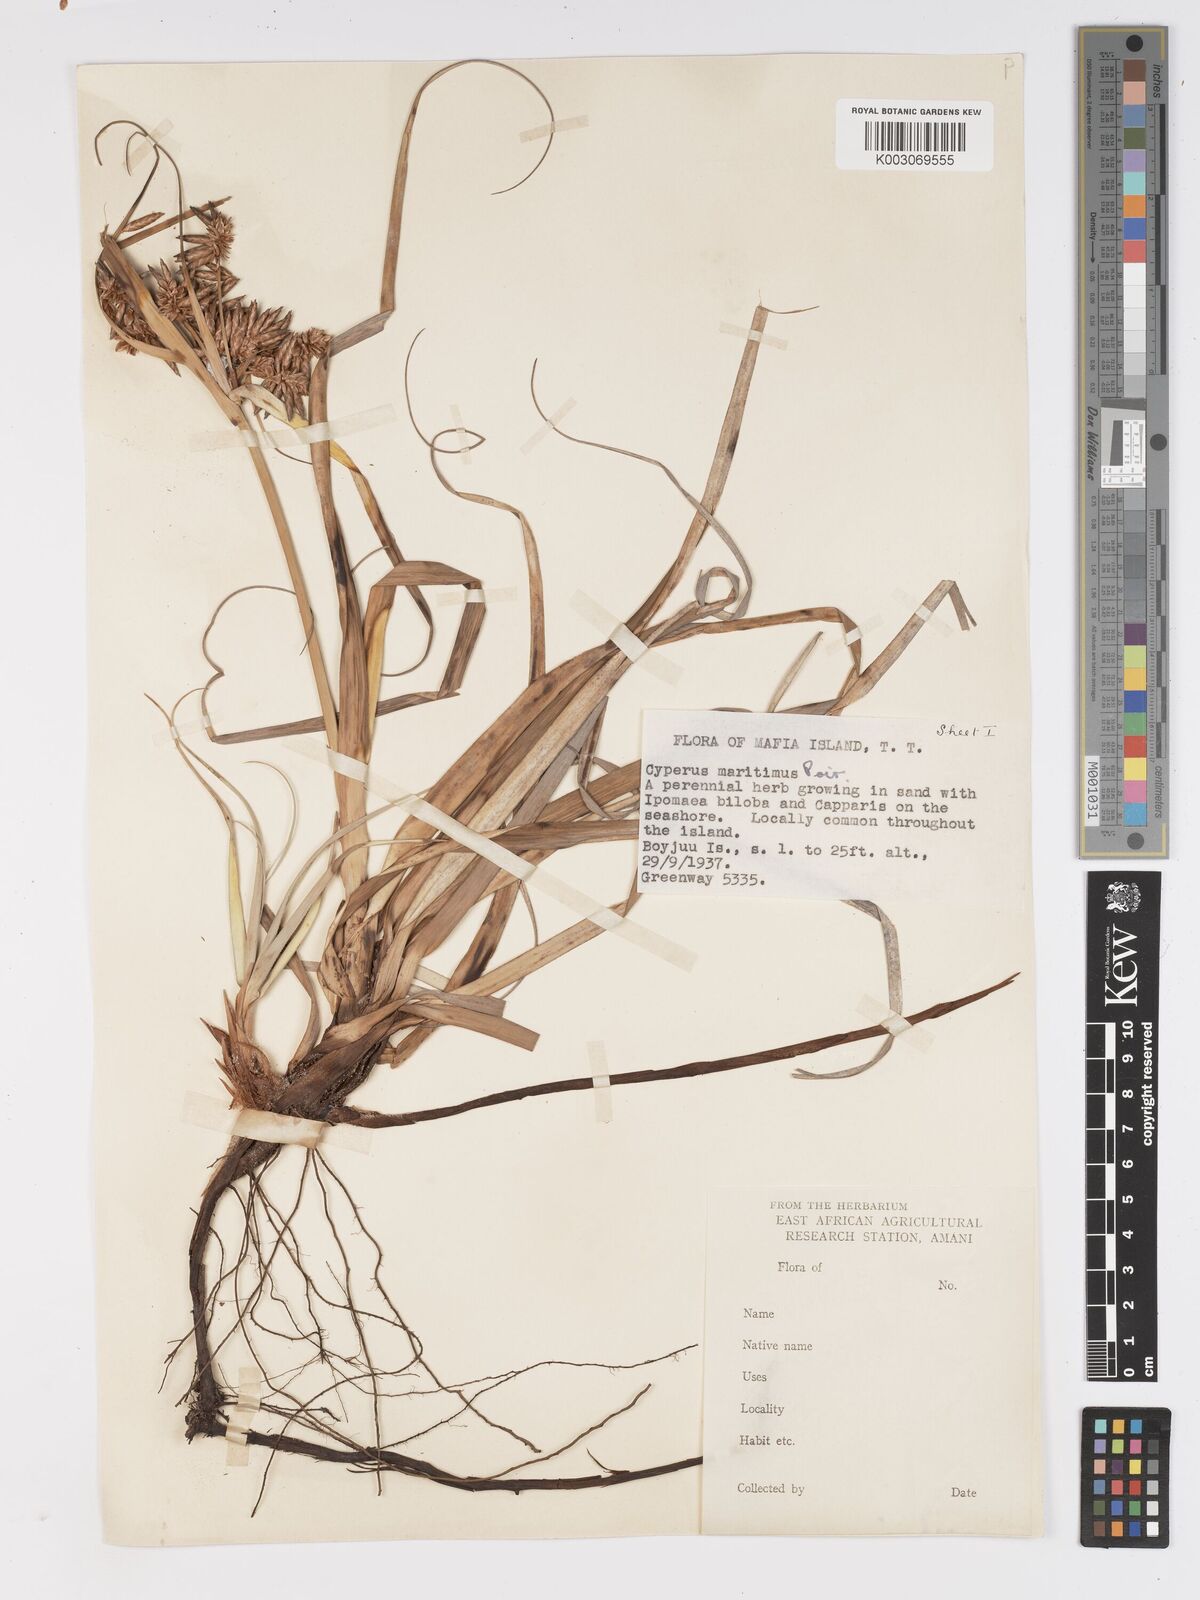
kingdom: Plantae
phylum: Tracheophyta
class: Liliopsida
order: Poales
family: Cyperaceae
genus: Cyperus
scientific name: Cyperus crassipes
